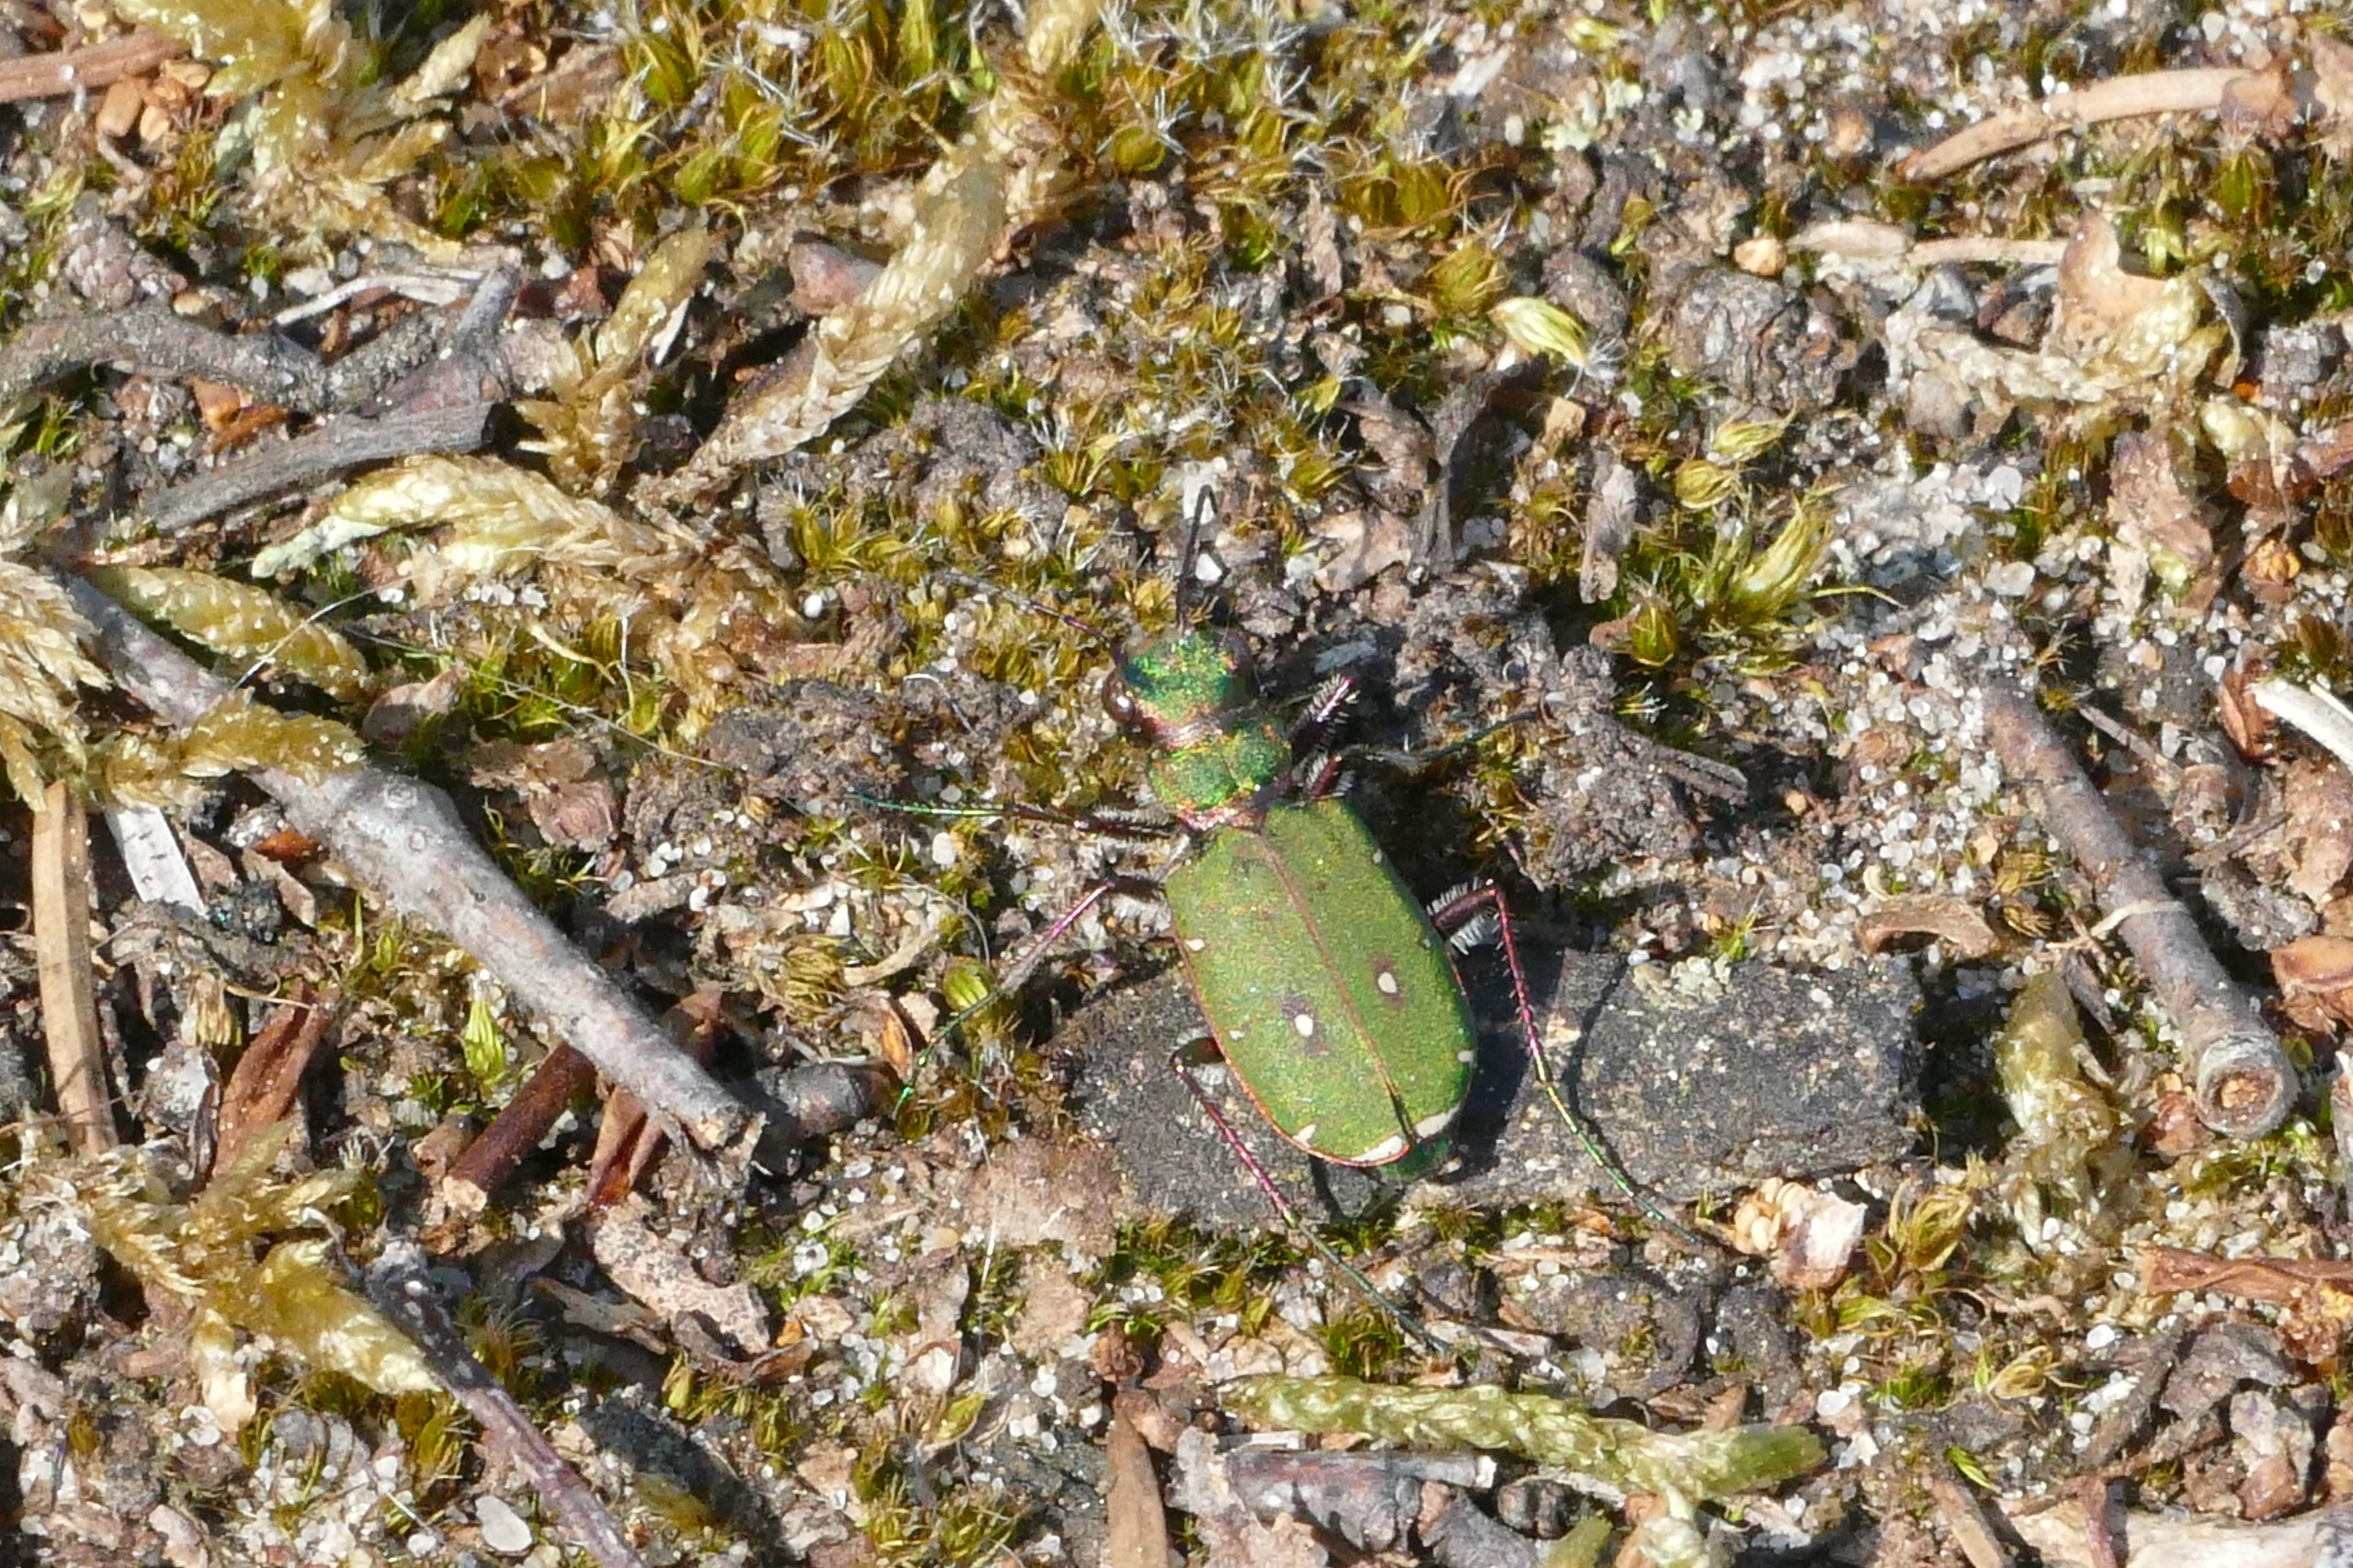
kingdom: Animalia
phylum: Arthropoda
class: Insecta
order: Coleoptera
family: Carabidae
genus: Cicindela
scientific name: Cicindela campestris
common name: Grøn sandspringer
